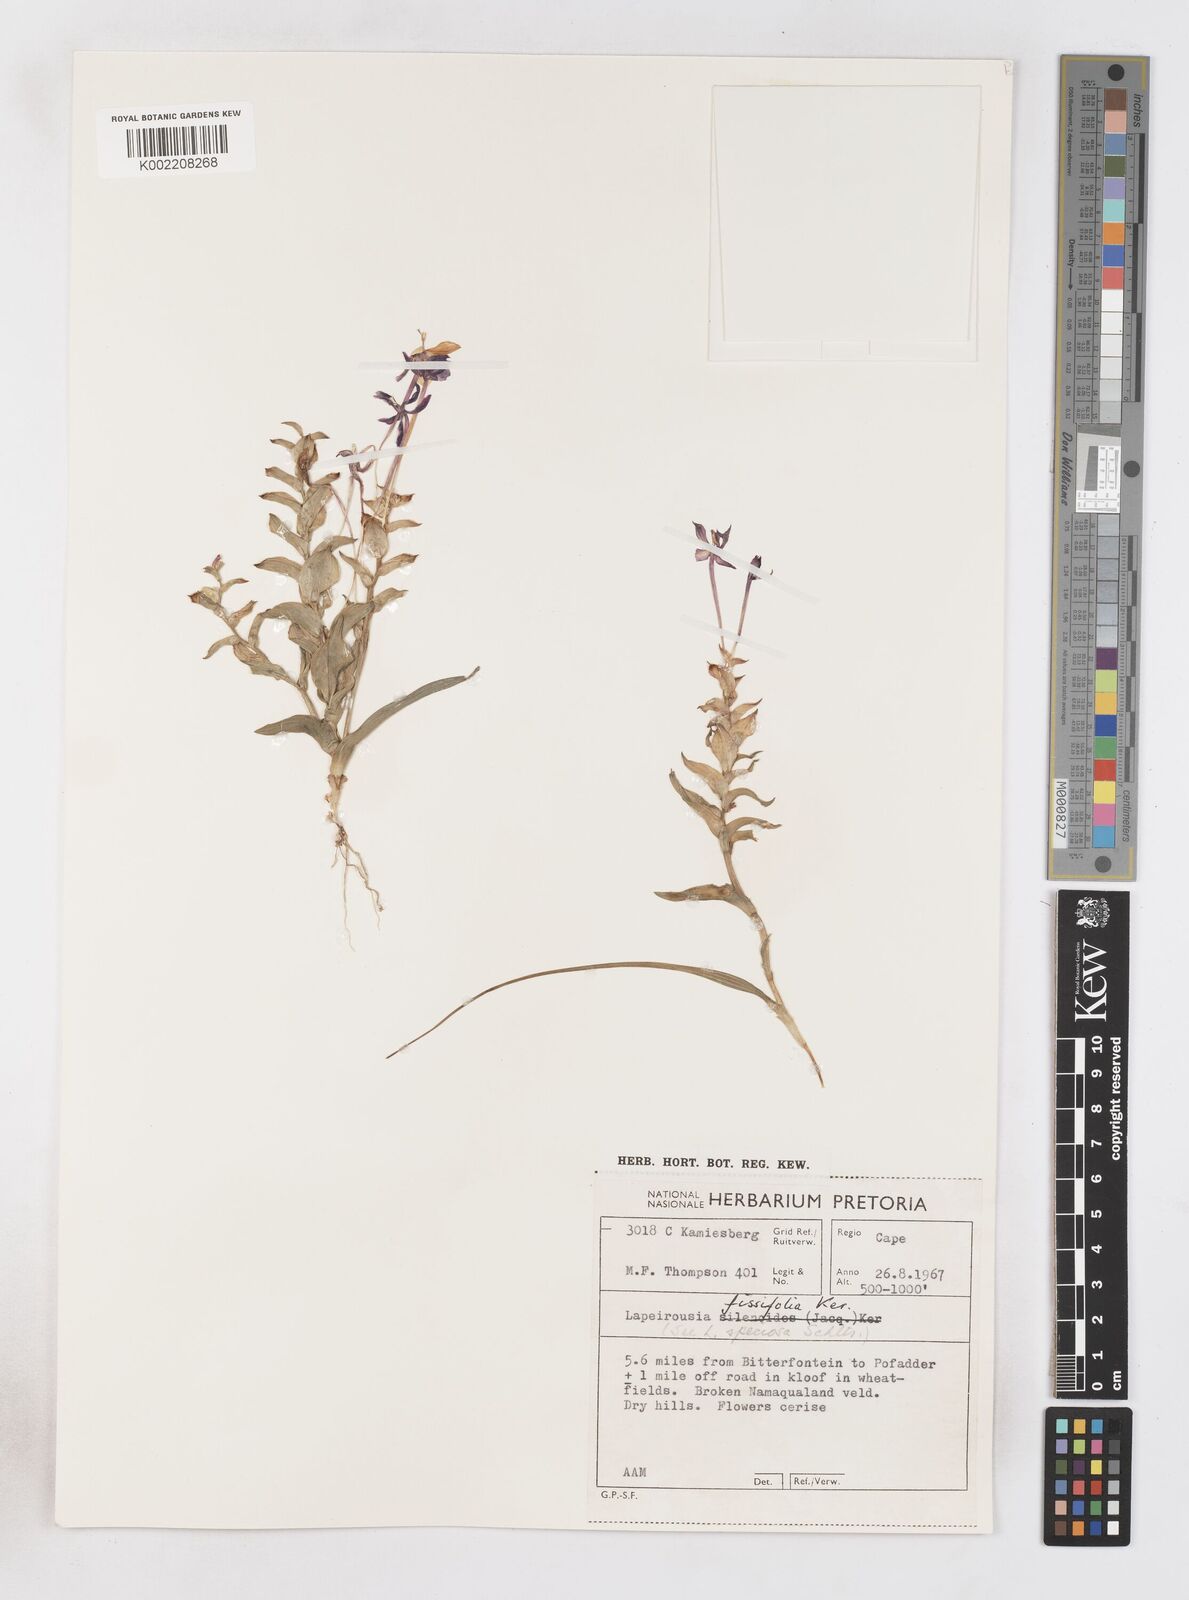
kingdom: Plantae
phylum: Tracheophyta
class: Liliopsida
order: Asparagales
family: Iridaceae
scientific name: Iridaceae
